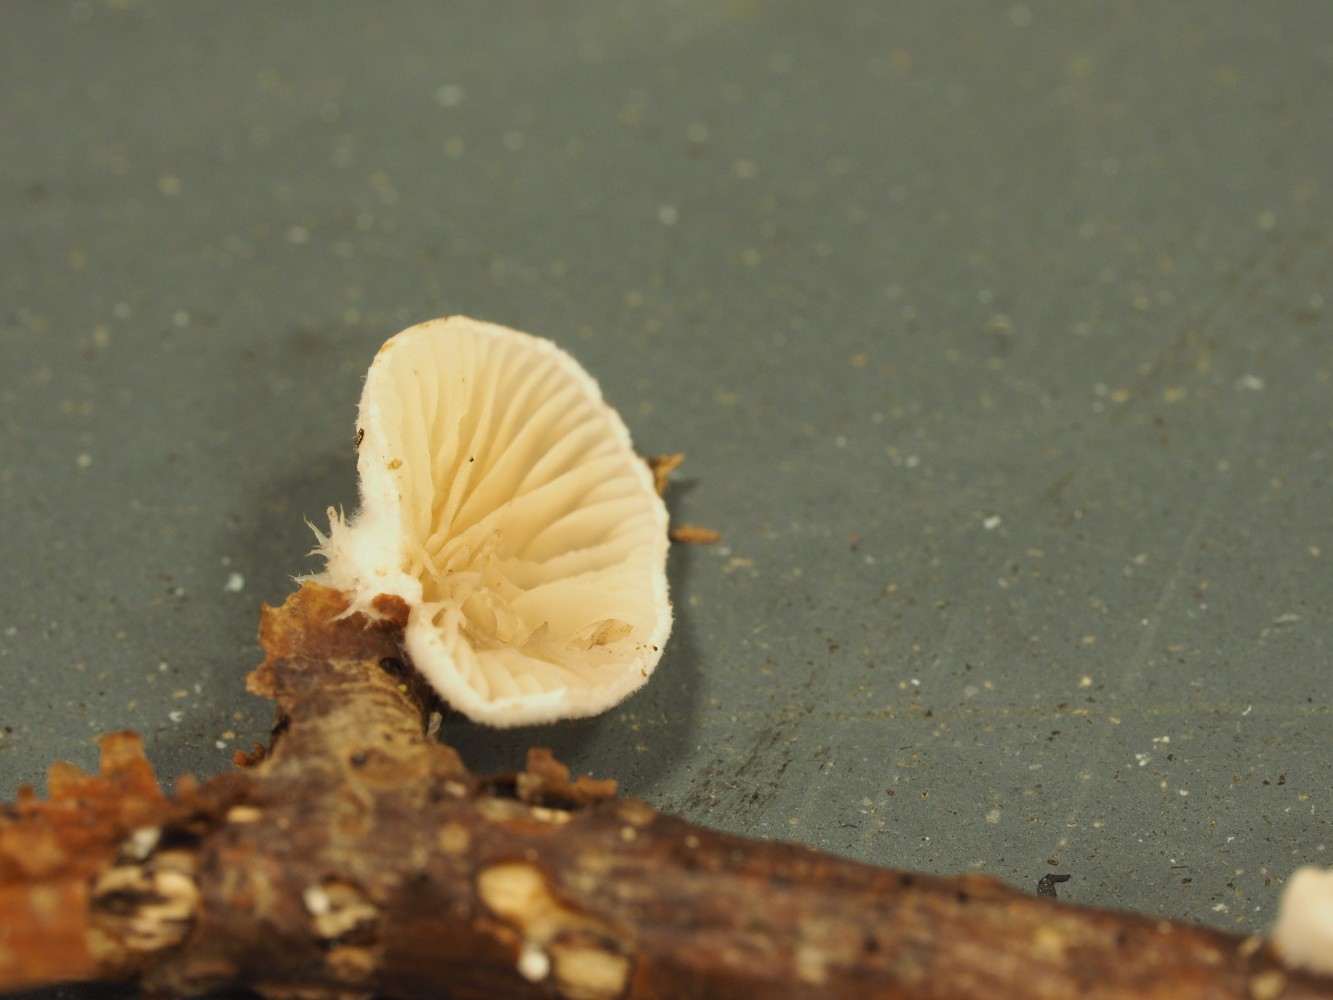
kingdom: Fungi
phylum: Basidiomycota
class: Agaricomycetes
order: Agaricales
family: Crepidotaceae
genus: Crepidotus
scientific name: Crepidotus cesatii
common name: almindelig muslingesvamp
